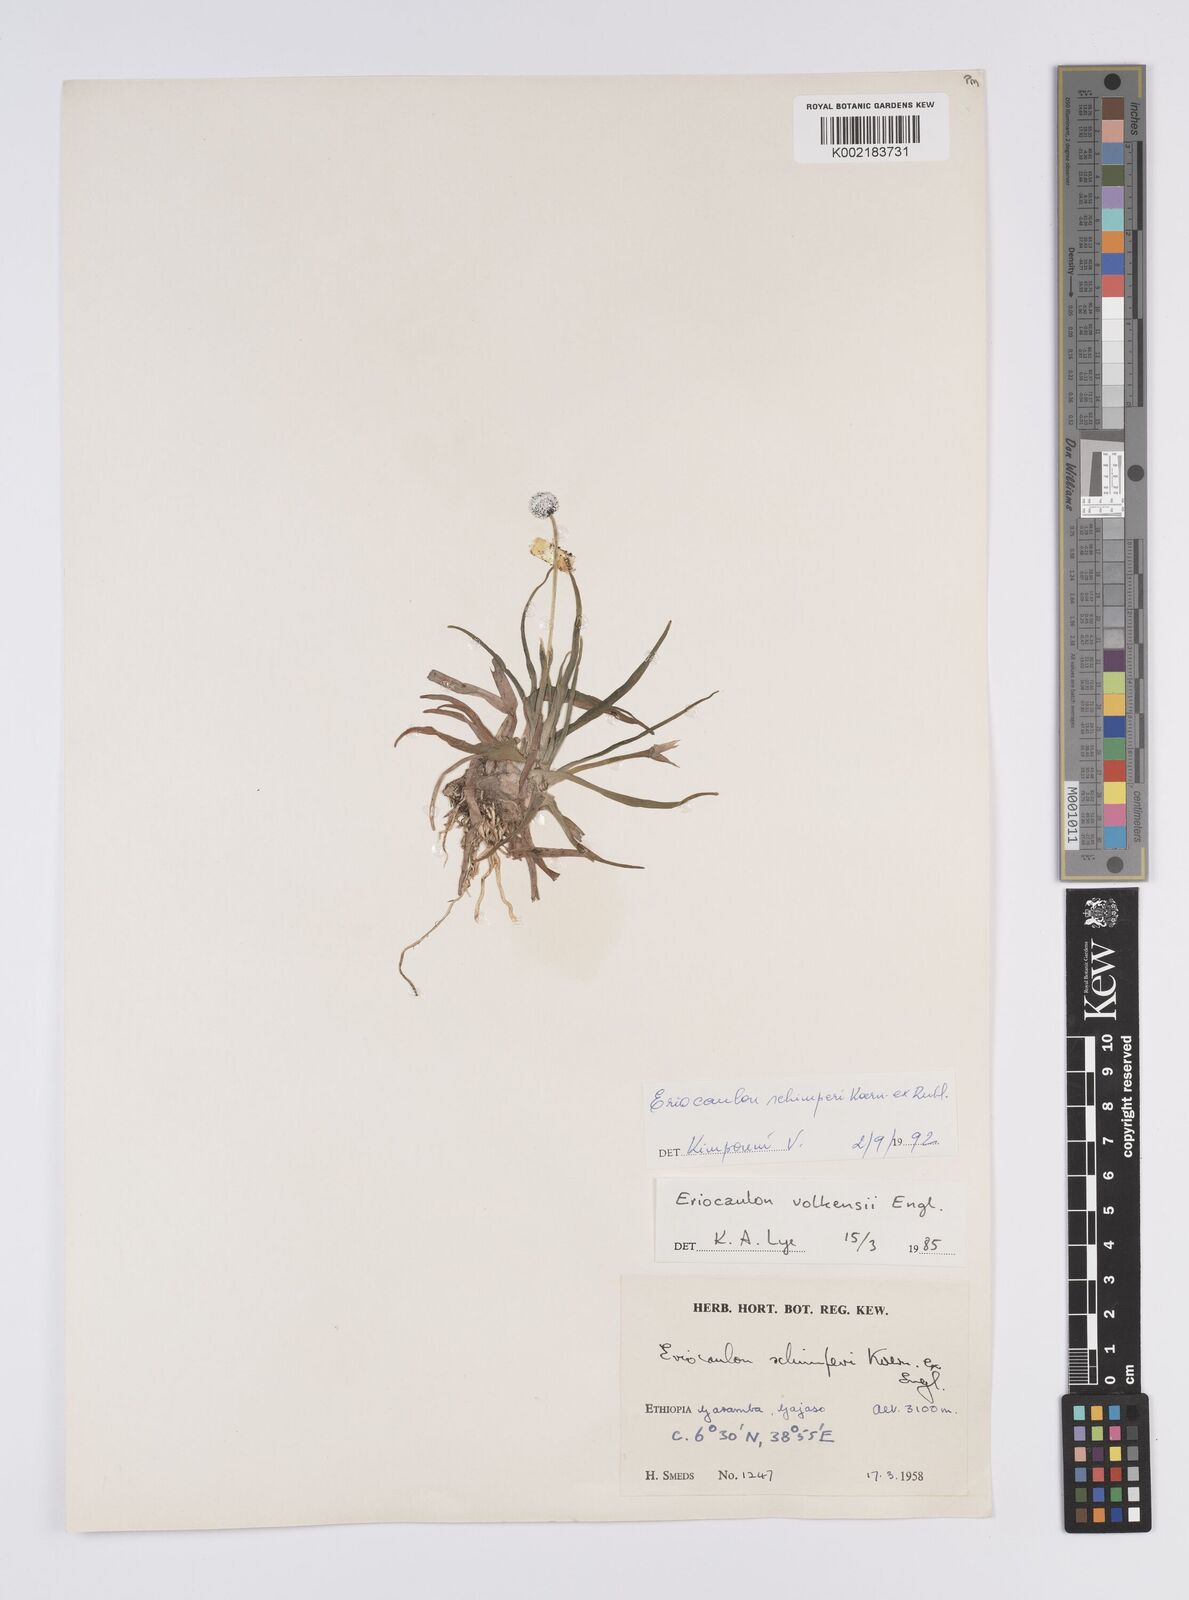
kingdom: Plantae
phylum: Tracheophyta
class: Liliopsida
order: Poales
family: Eriocaulaceae
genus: Eriocaulon
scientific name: Eriocaulon schimperi
